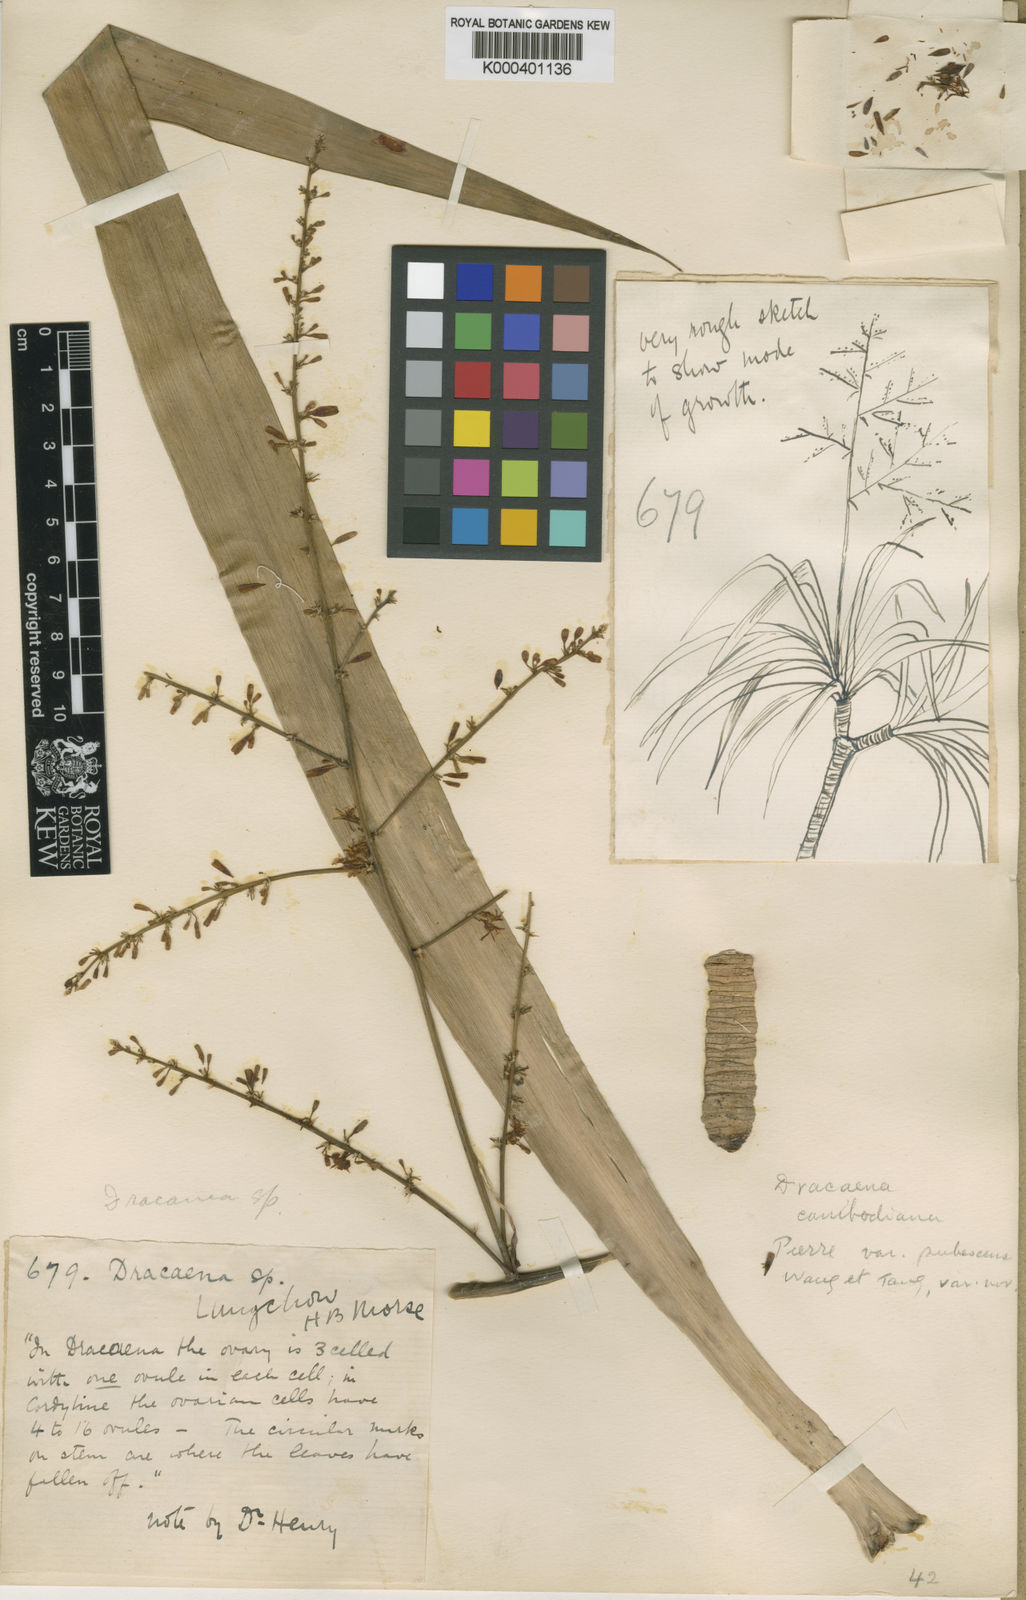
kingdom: Plantae
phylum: Tracheophyta
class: Liliopsida
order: Asparagales
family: Asparagaceae
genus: Dracaena
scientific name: Dracaena cambodiana
